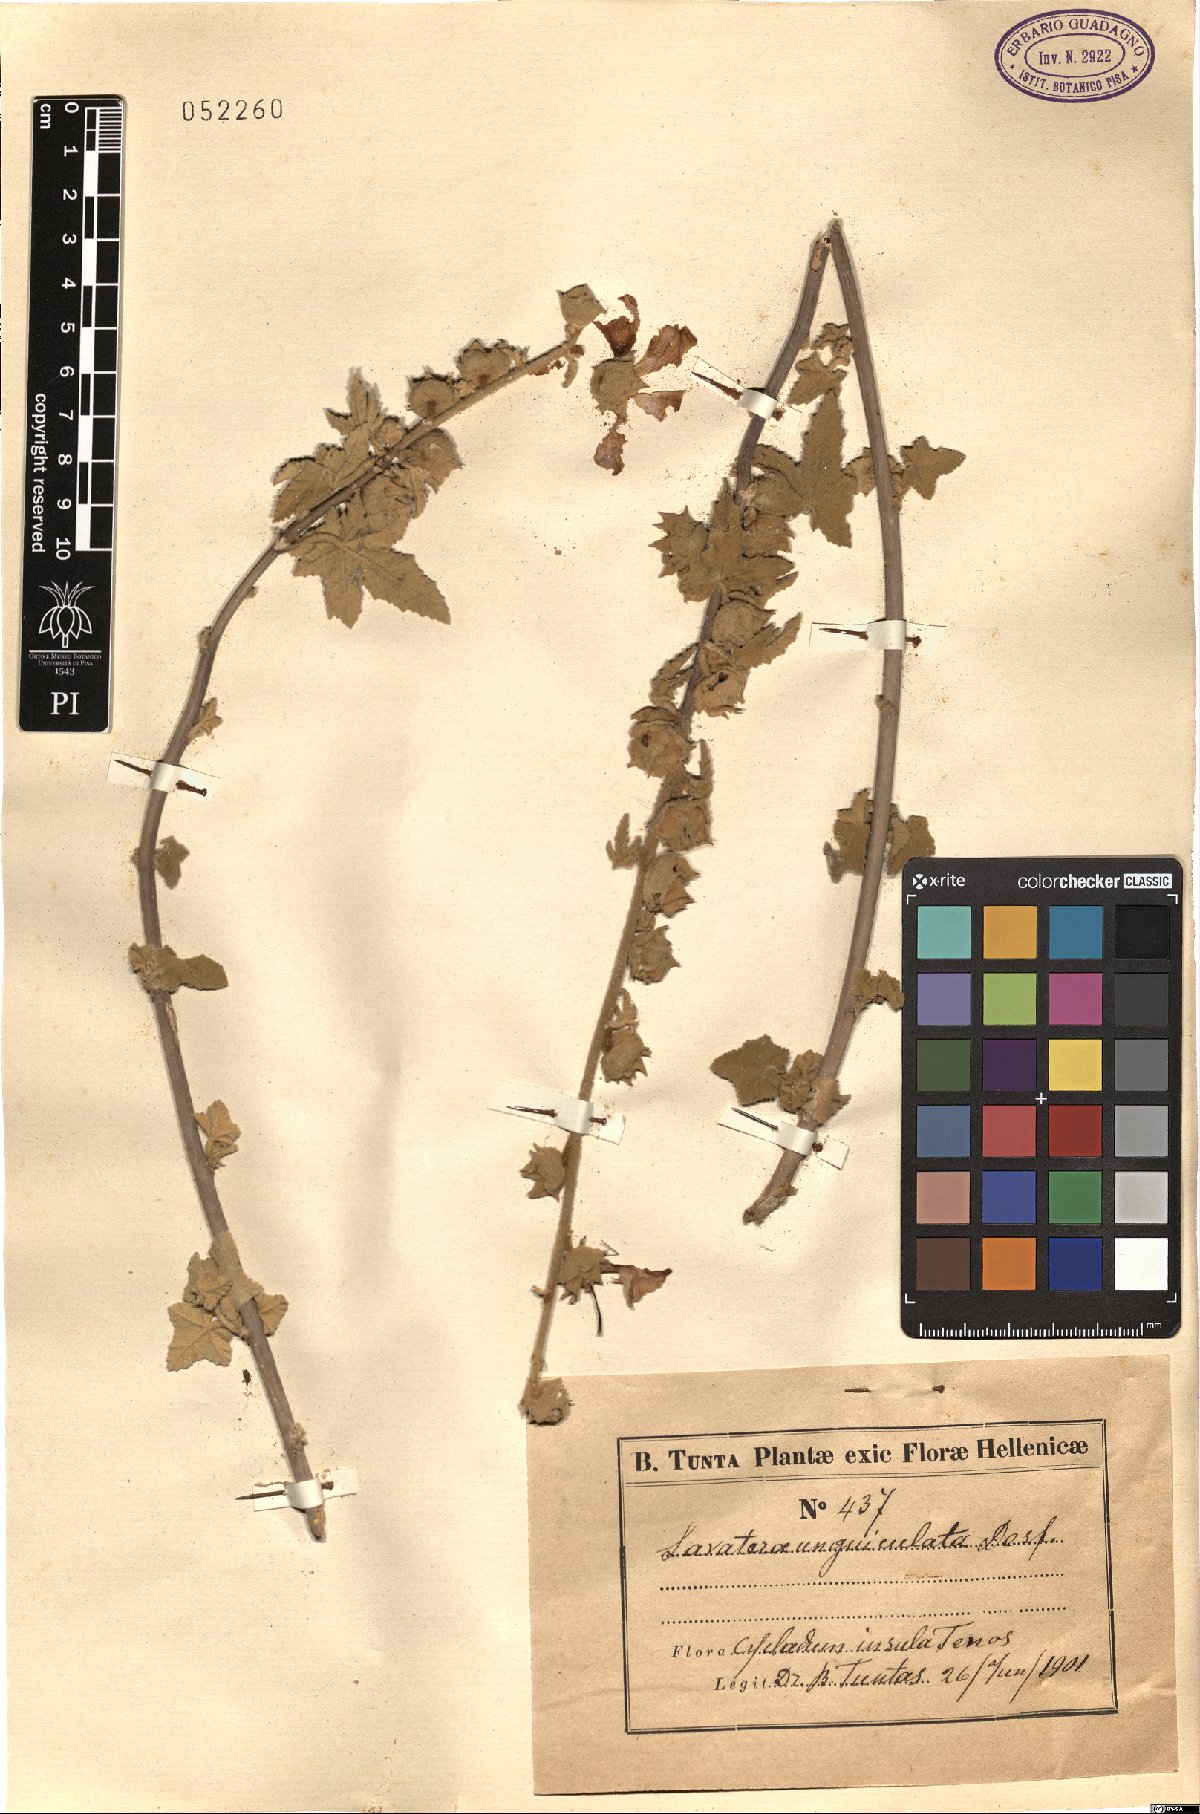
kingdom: Plantae
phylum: Tracheophyta
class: Magnoliopsida
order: Malvales
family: Malvaceae
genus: Malva
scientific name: Malva unguiculata
